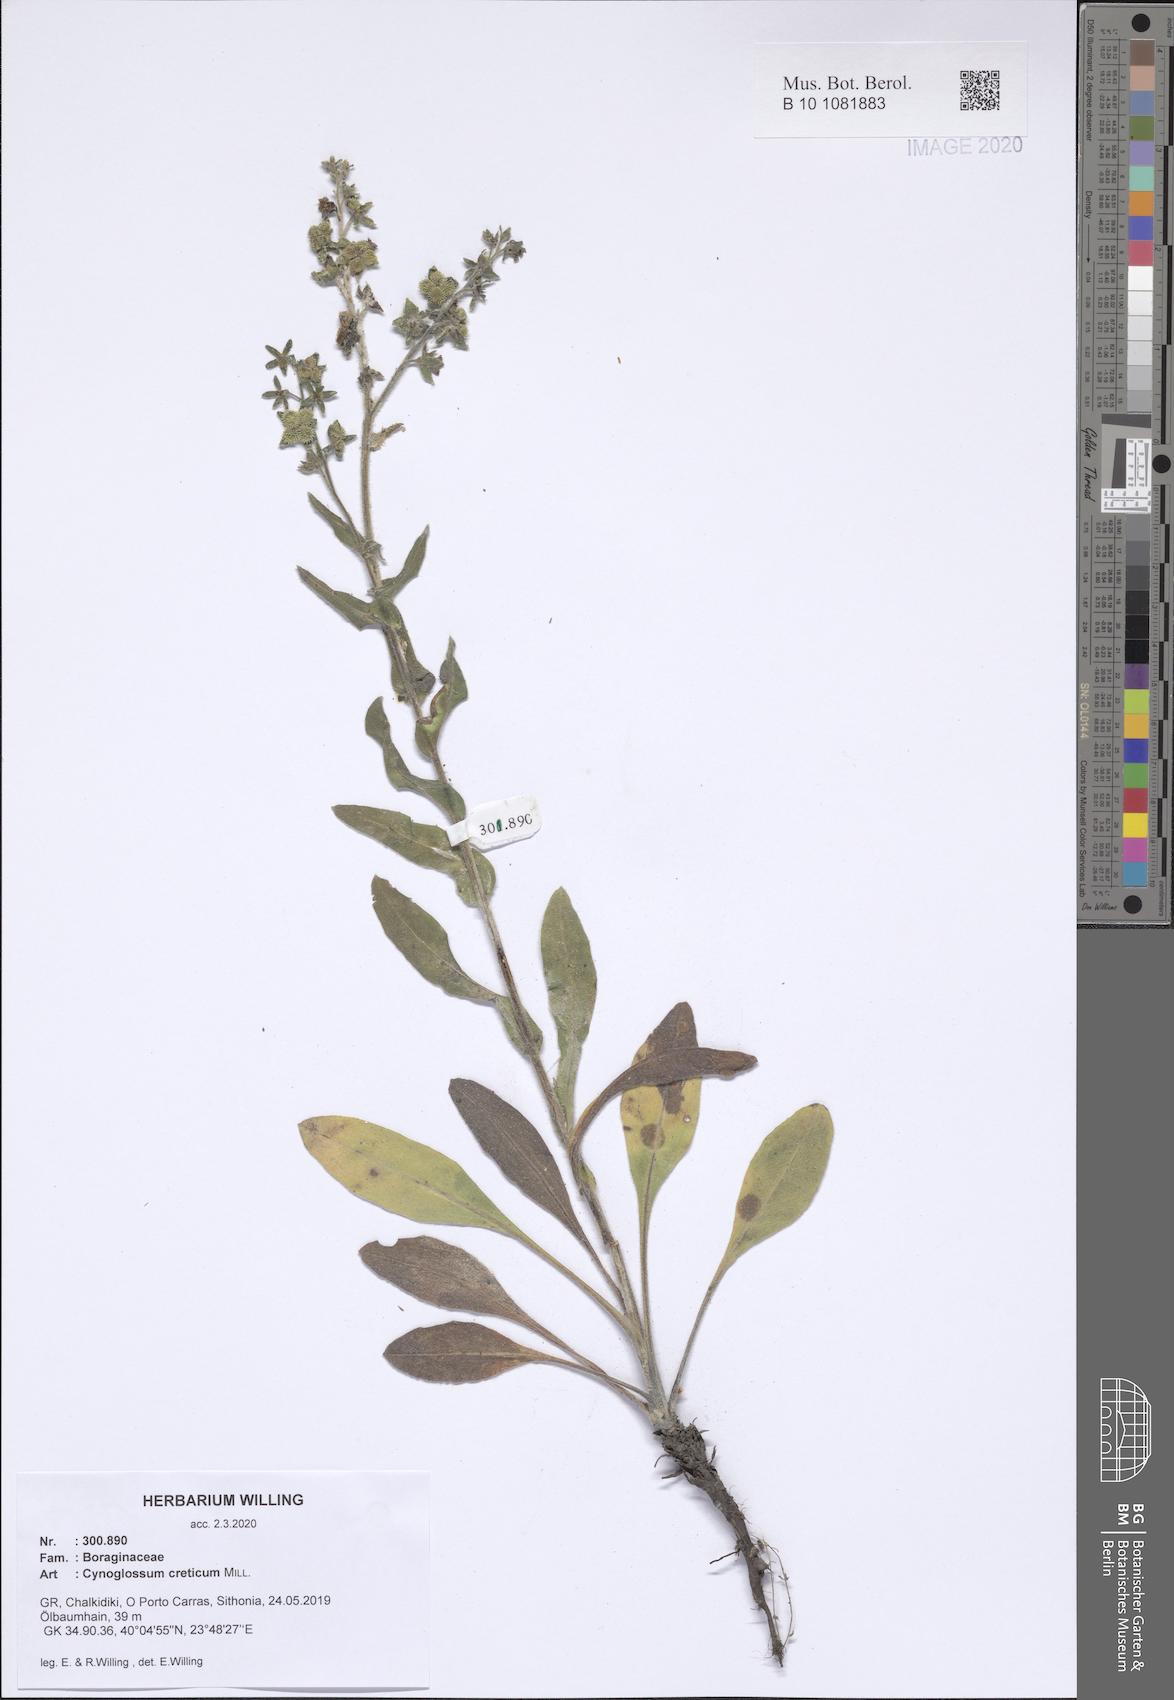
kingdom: Plantae
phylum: Tracheophyta
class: Magnoliopsida
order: Boraginales
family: Boraginaceae
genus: Cynoglossum
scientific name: Cynoglossum creticum
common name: Blue hound's tongue
